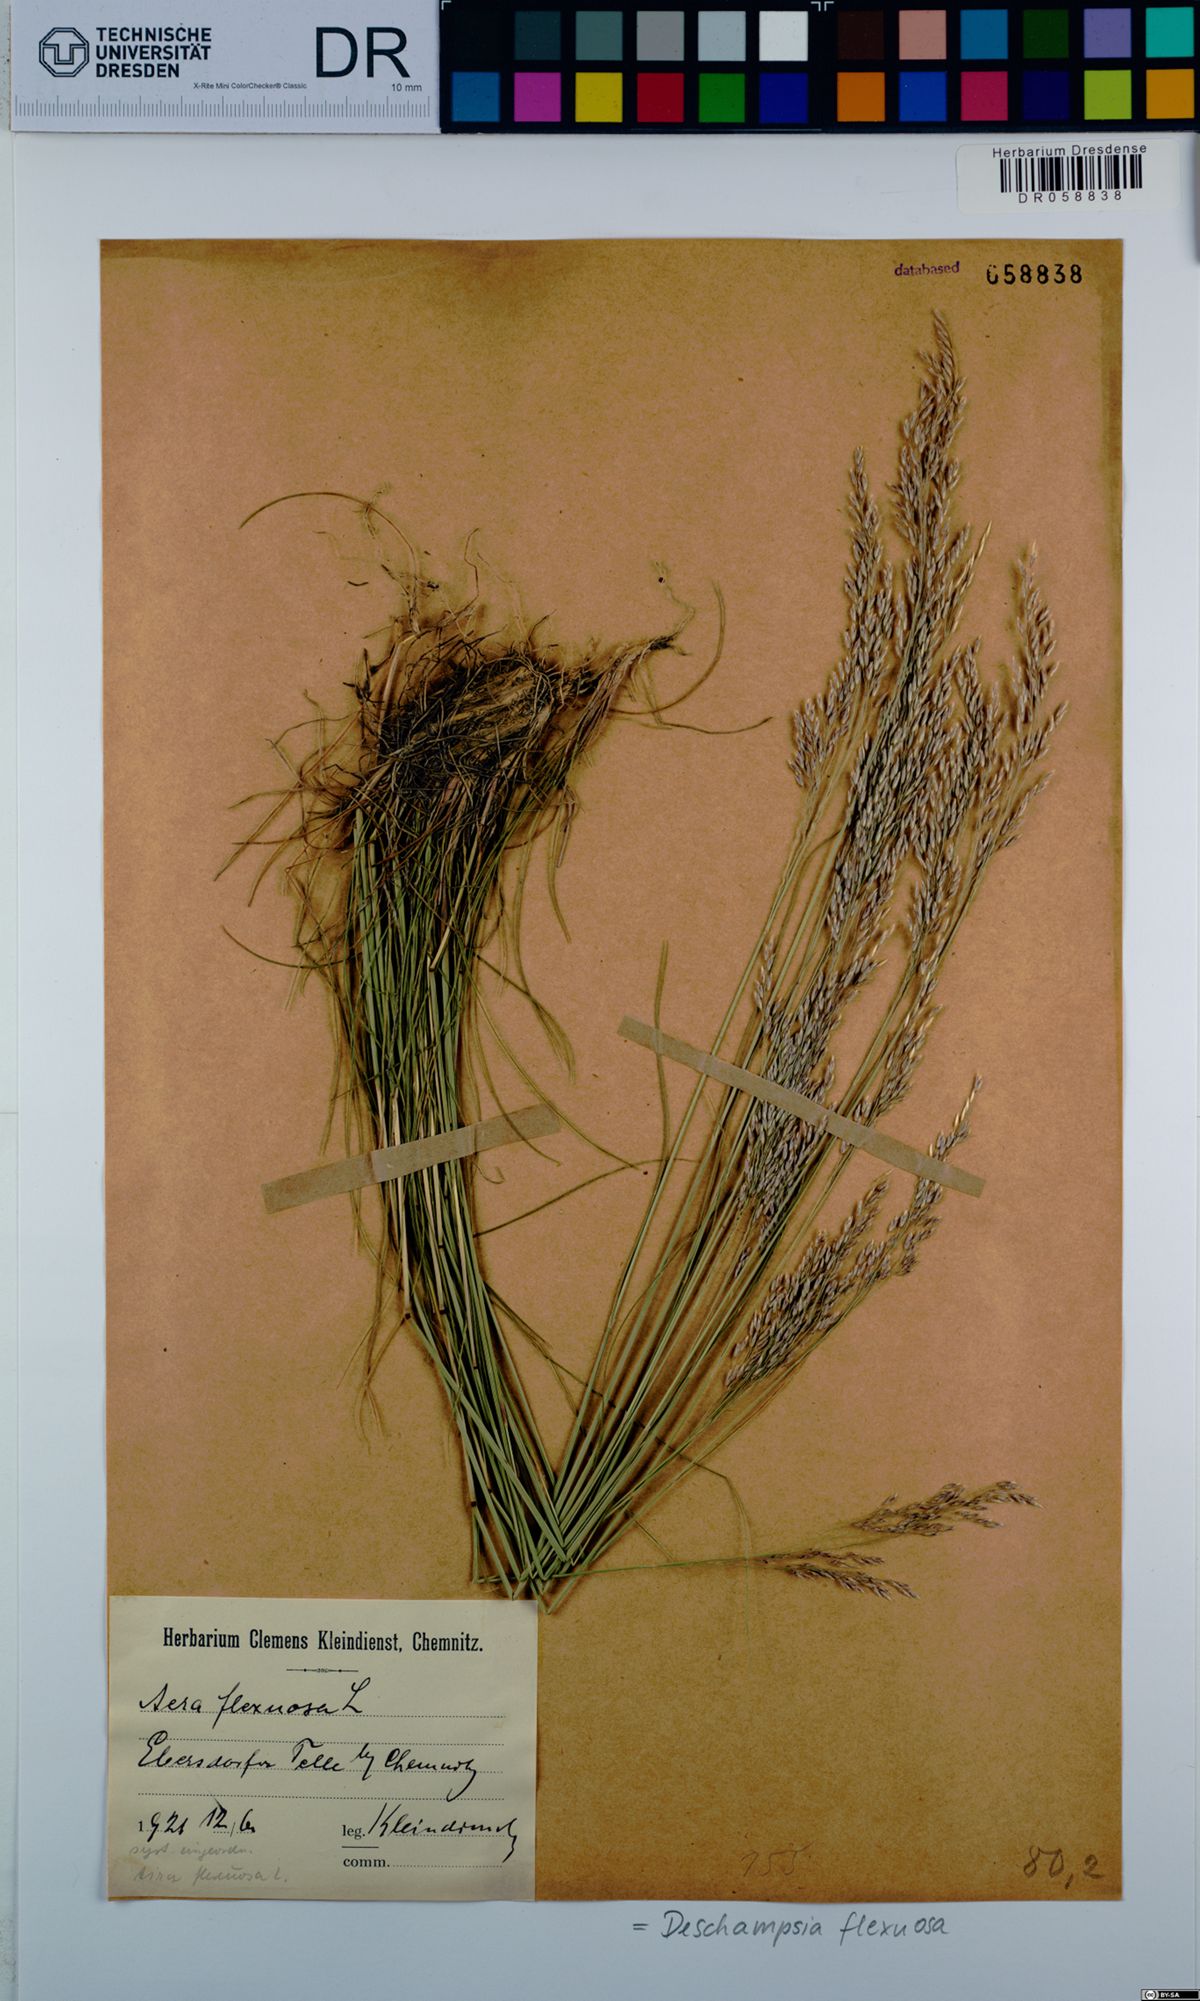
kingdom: Plantae
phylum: Tracheophyta
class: Liliopsida
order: Poales
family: Poaceae
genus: Avenella
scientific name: Avenella flexuosa
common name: Wavy hairgrass
